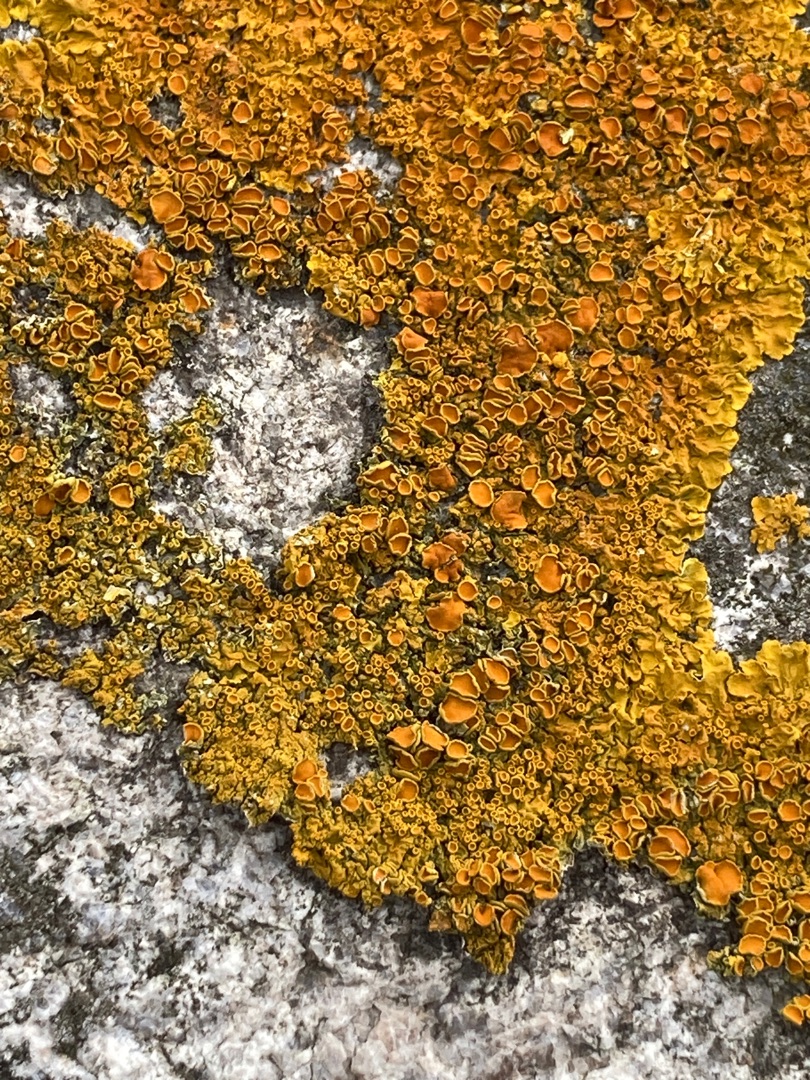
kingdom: Fungi
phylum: Ascomycota
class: Lecanoromycetes
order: Teloschistales
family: Teloschistaceae
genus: Xanthoria
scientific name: Xanthoria parietina
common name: Almindelig væggelav
